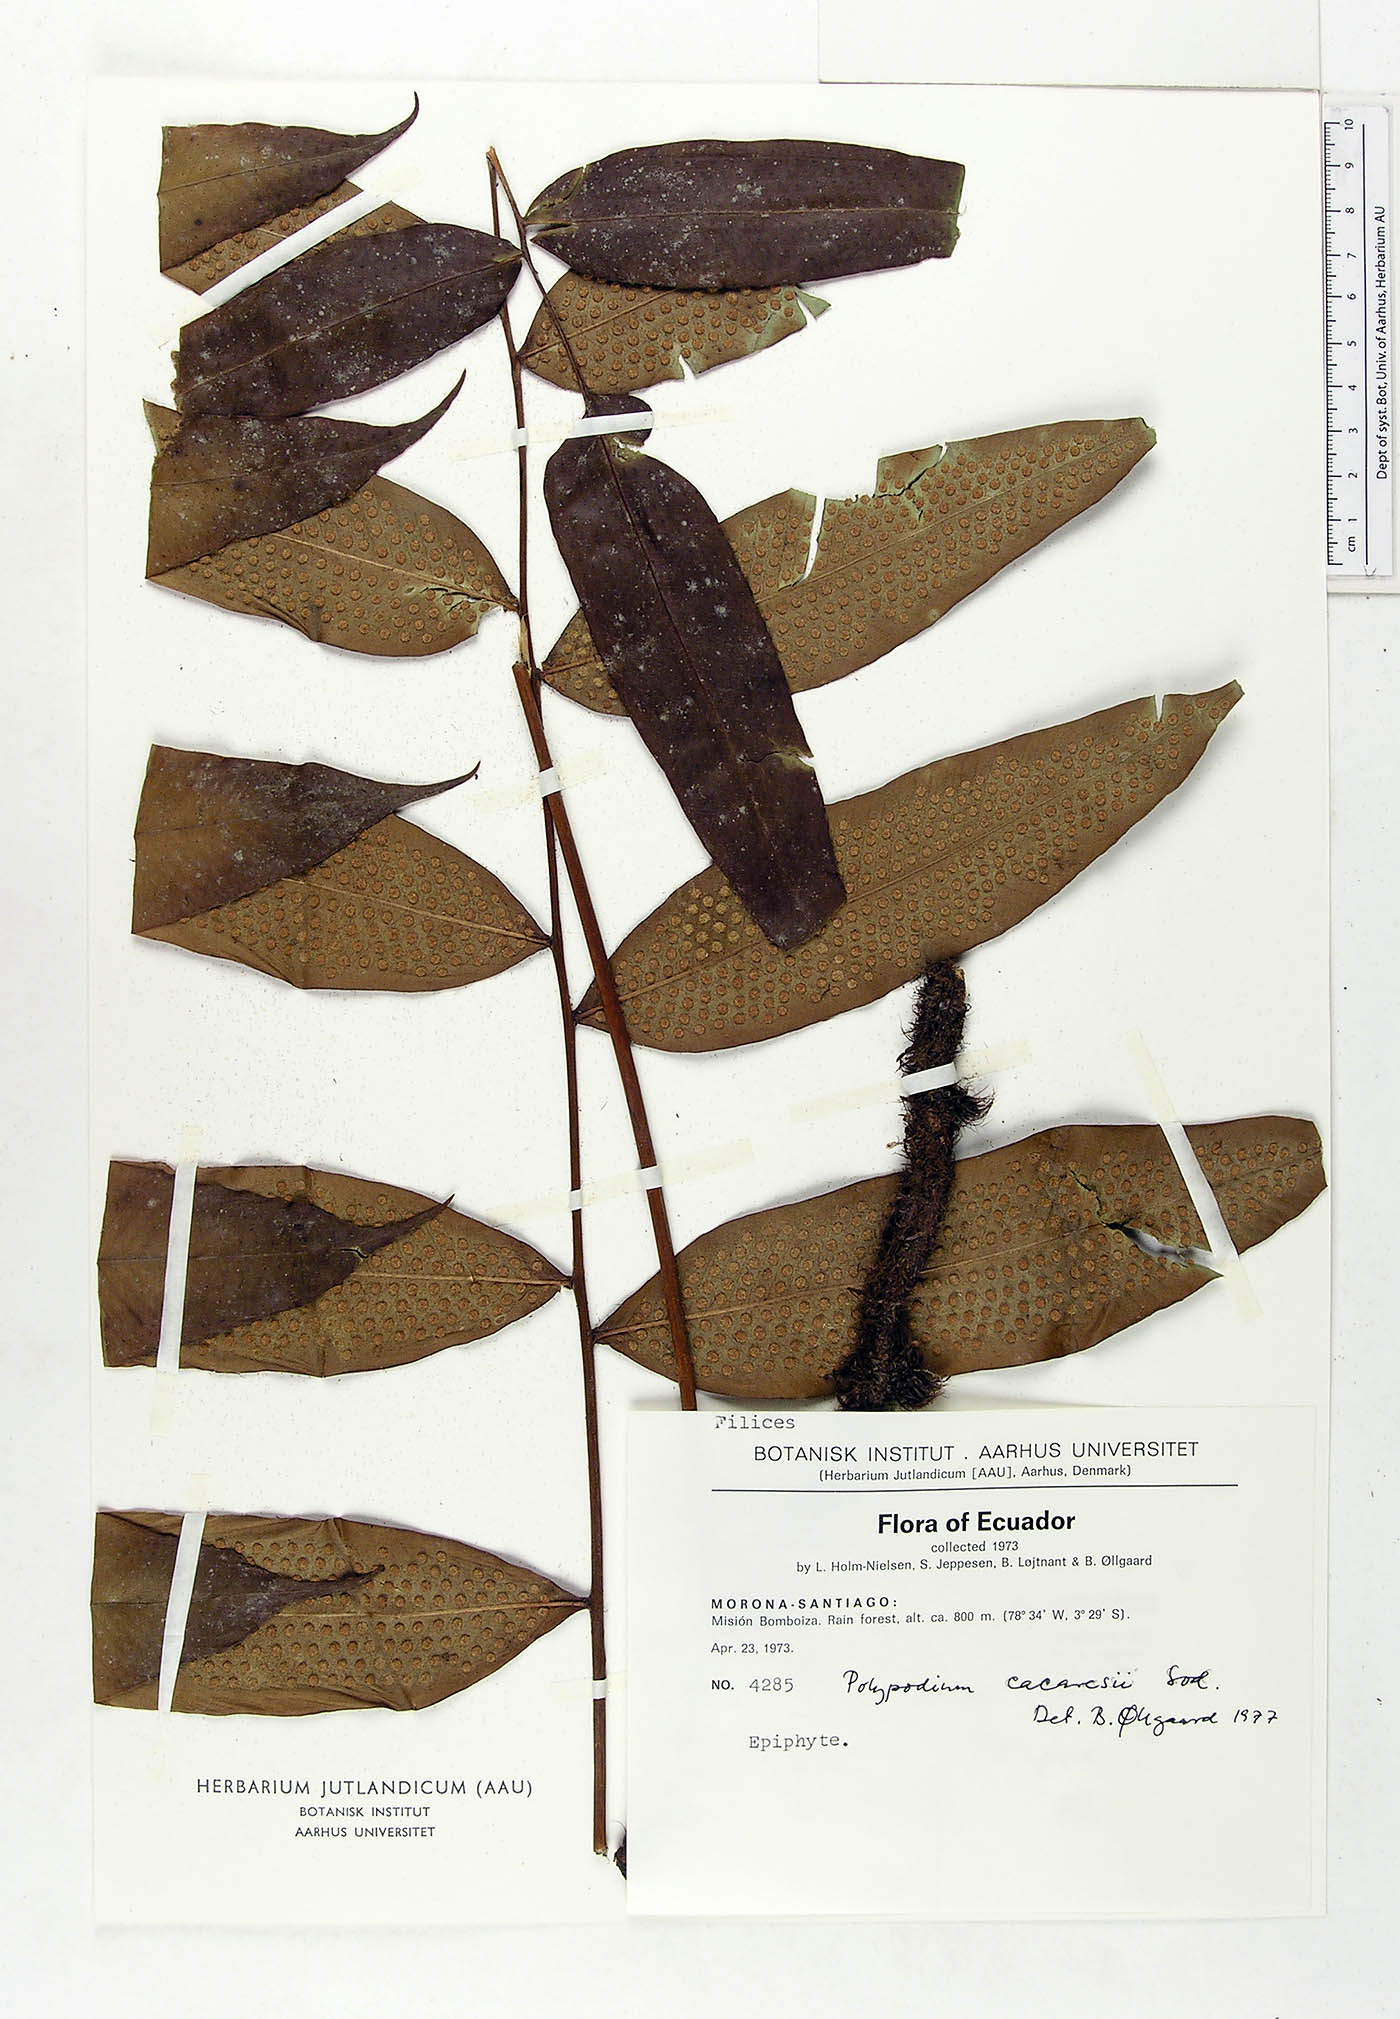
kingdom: Plantae
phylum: Tracheophyta
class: Polypodiopsida
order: Polypodiales
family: Polypodiaceae
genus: Serpocaulon
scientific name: Serpocaulon articulatum
